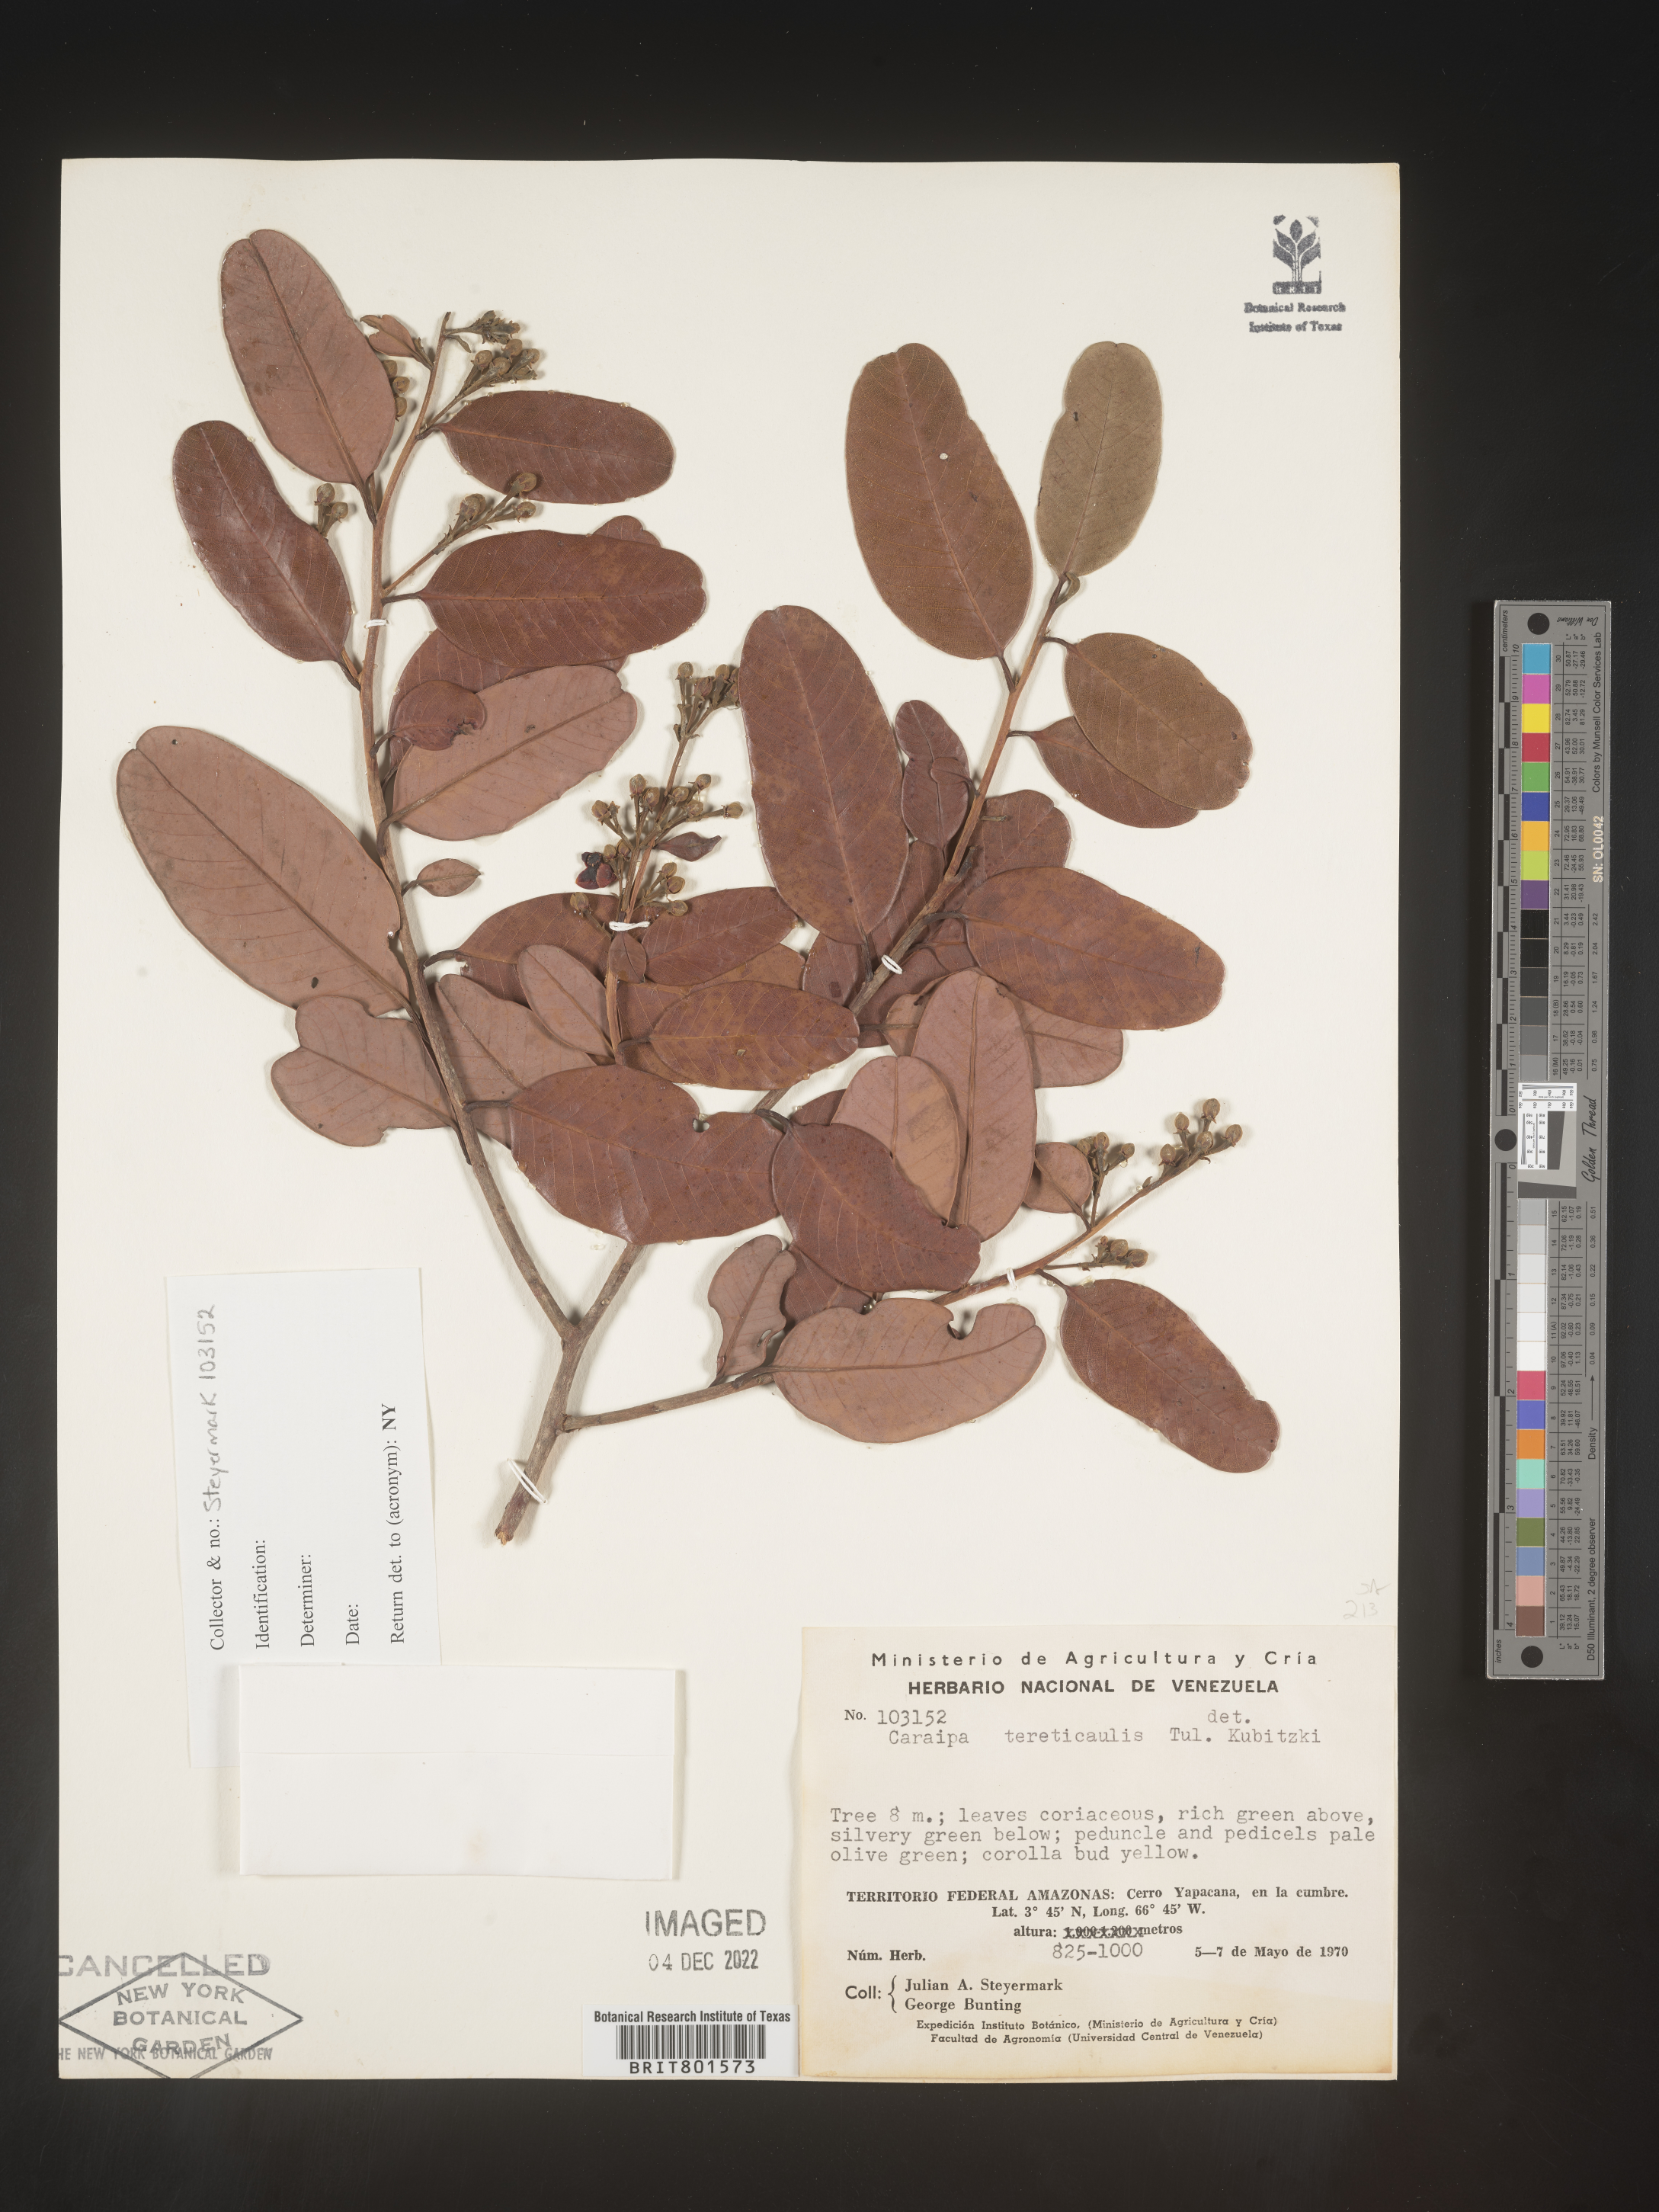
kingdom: Plantae
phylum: Tracheophyta
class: Magnoliopsida
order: Malpighiales
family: Calophyllaceae
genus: Caraipa
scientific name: Caraipa
